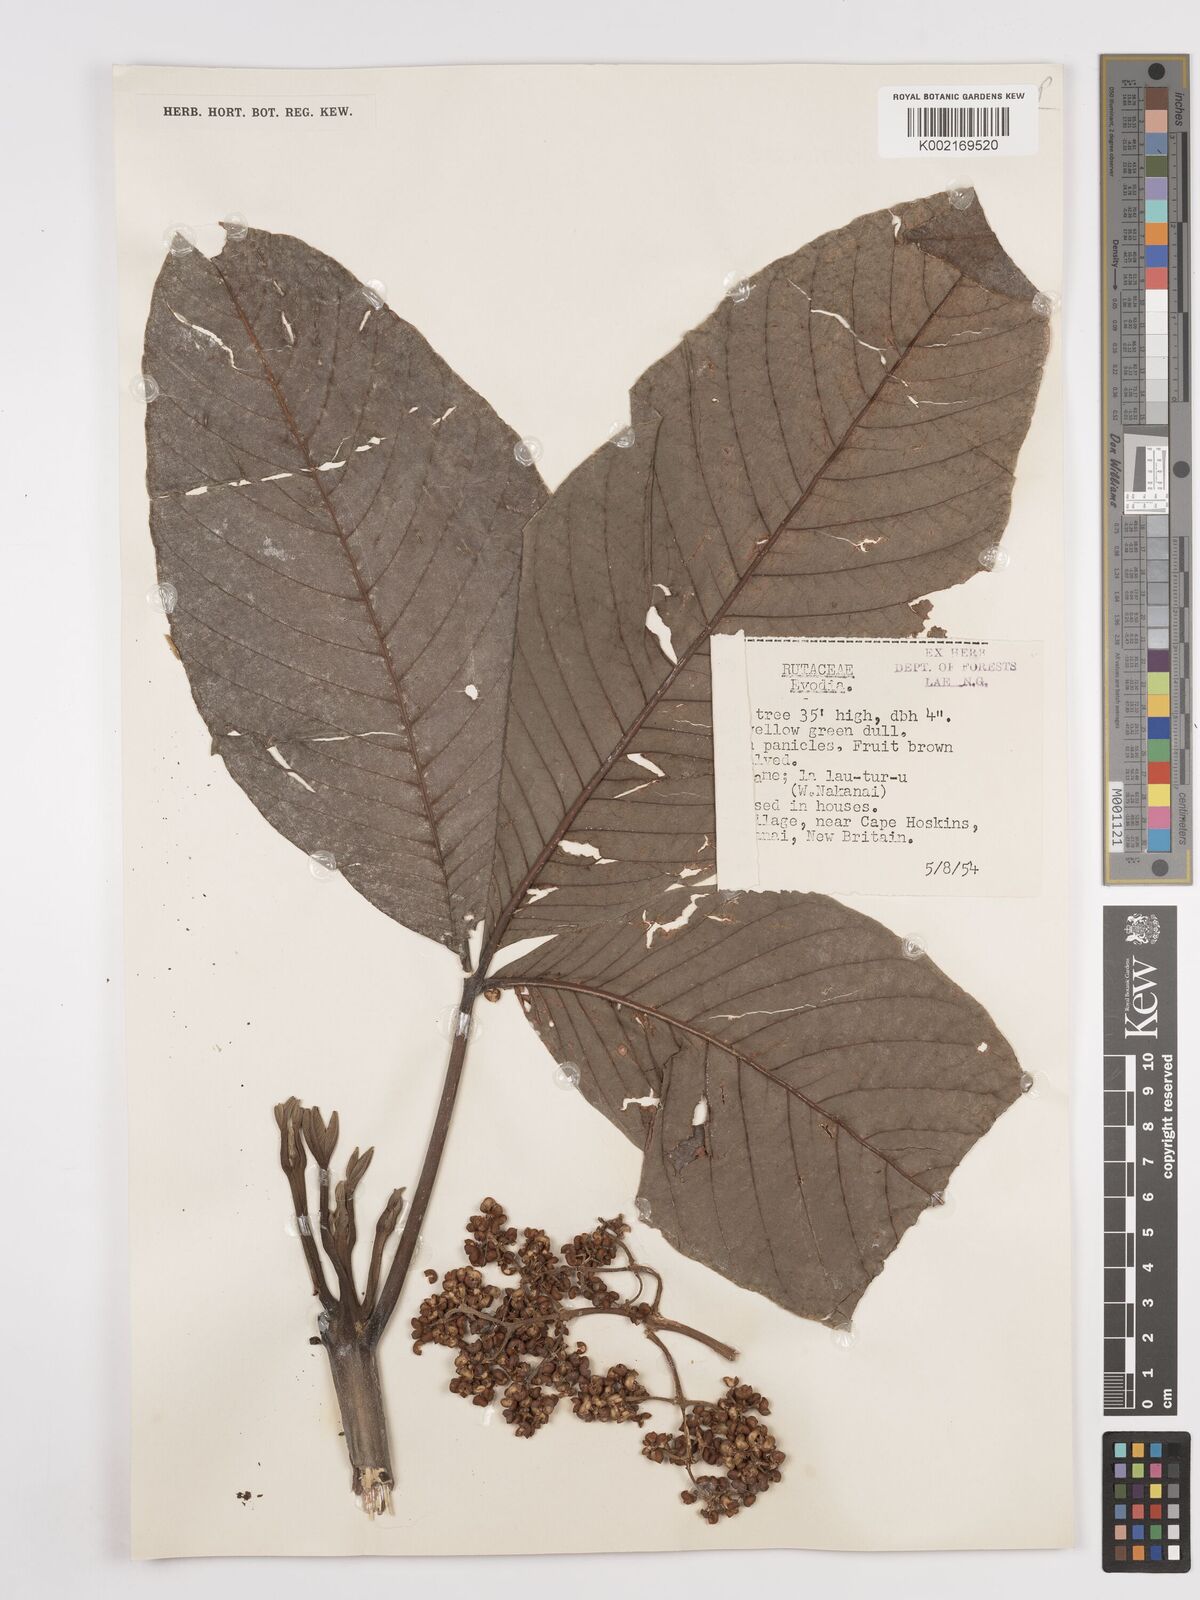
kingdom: Plantae
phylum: Tracheophyta
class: Magnoliopsida
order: Sapindales
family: Rutaceae
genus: Euodia
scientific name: Euodia
